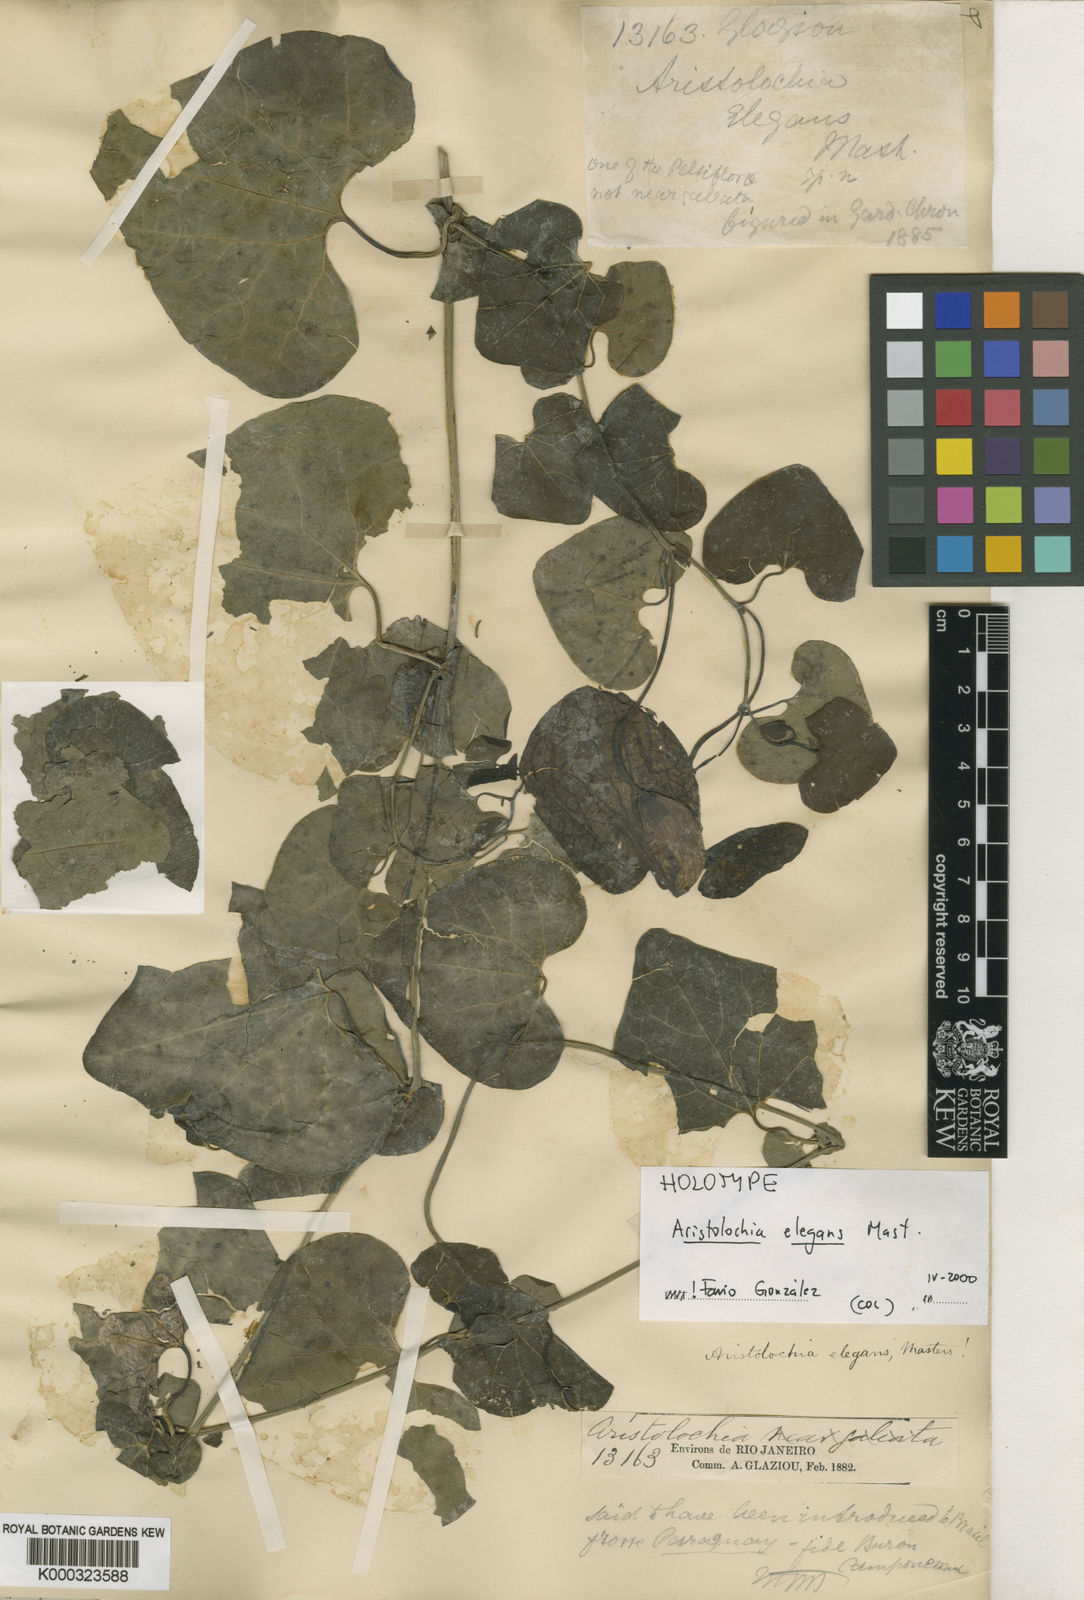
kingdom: Plantae
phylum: Tracheophyta
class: Magnoliopsida
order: Piperales
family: Aristolochiaceae
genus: Aristolochia
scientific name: Aristolochia littoralis
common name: Duck
